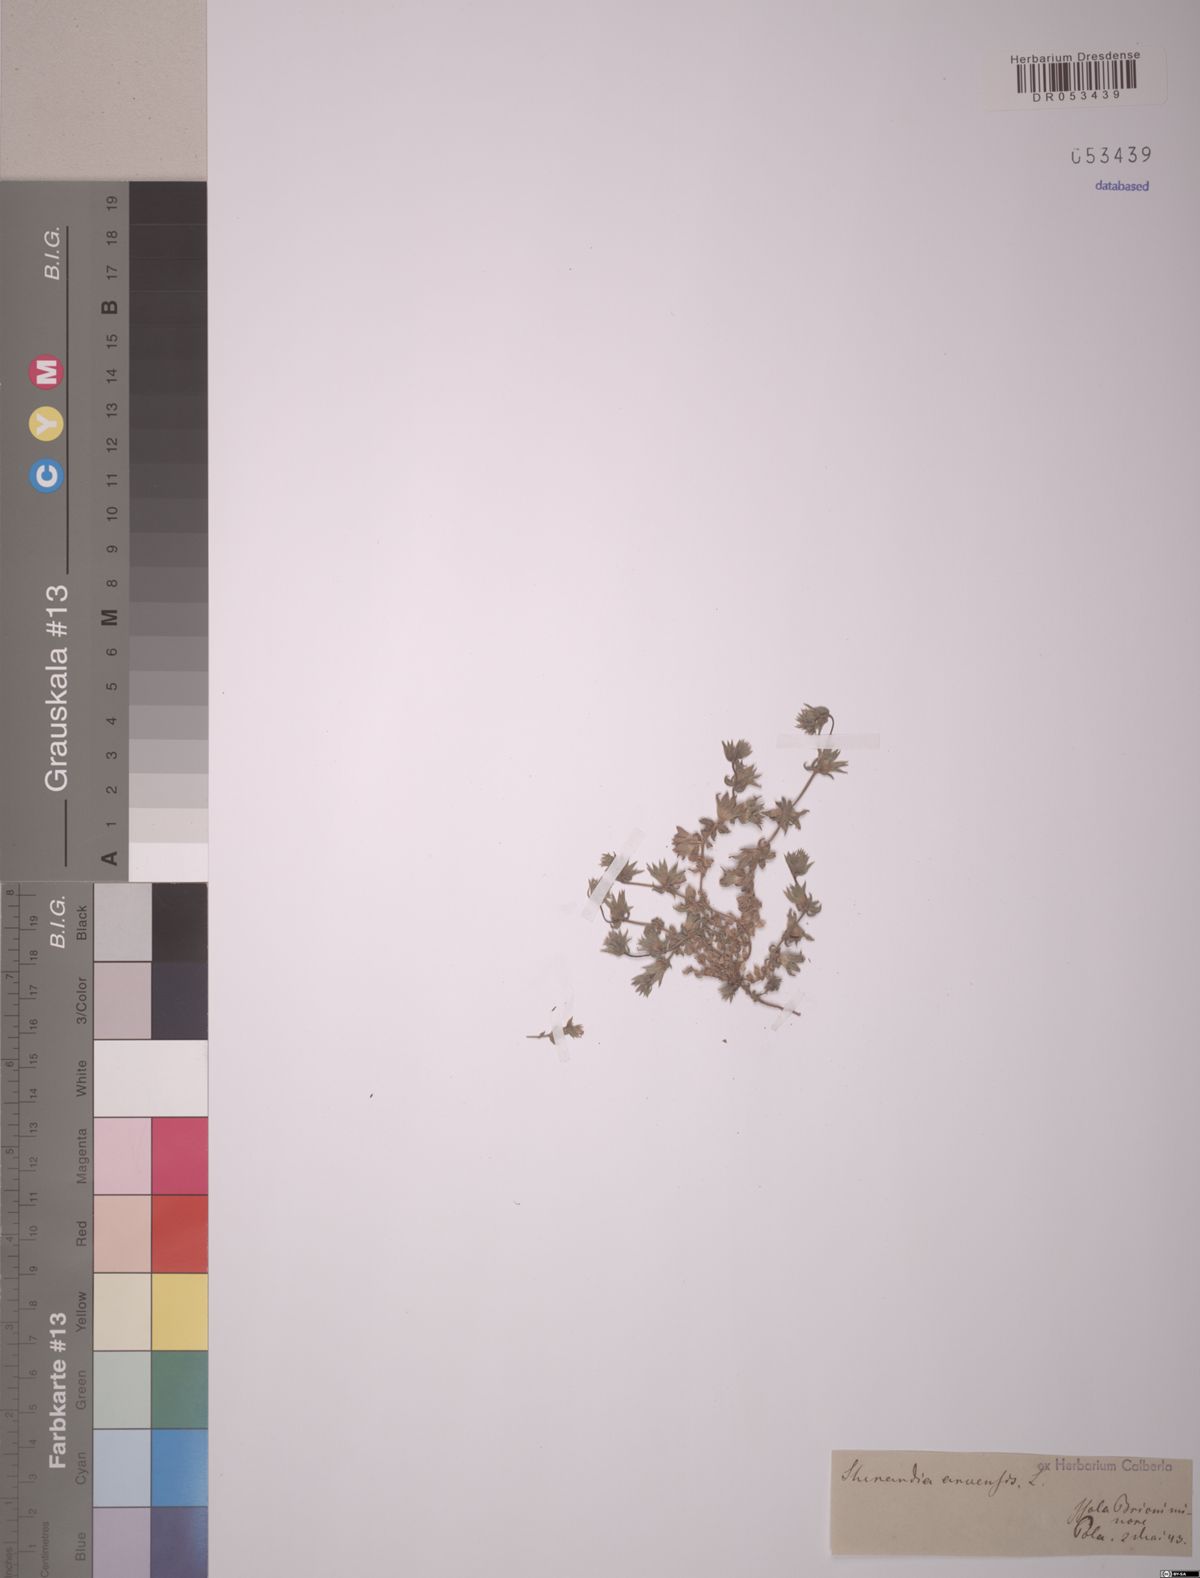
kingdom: Plantae
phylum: Tracheophyta
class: Magnoliopsida
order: Gentianales
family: Rubiaceae
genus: Sherardia
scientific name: Sherardia arvensis
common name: Field madder
